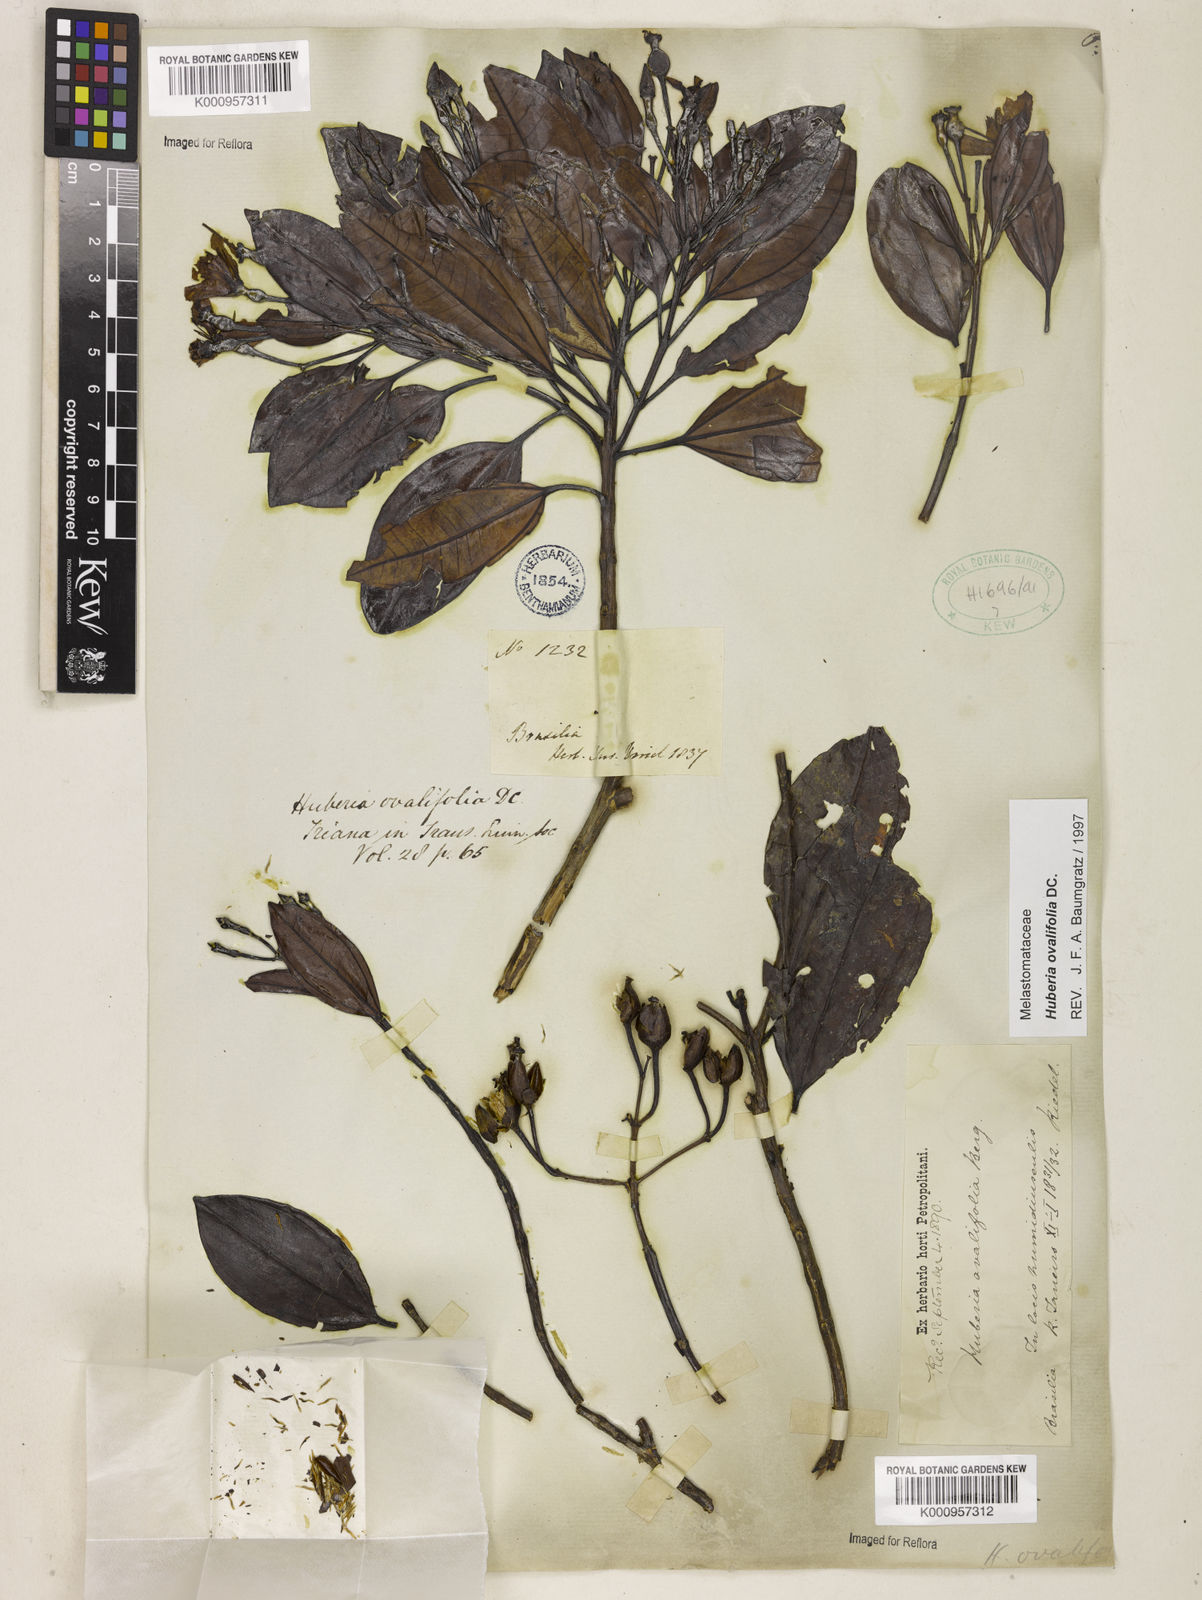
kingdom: Plantae
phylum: Tracheophyta
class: Magnoliopsida
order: Myrtales
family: Melastomataceae
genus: Huberia
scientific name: Huberia ovalifolia
